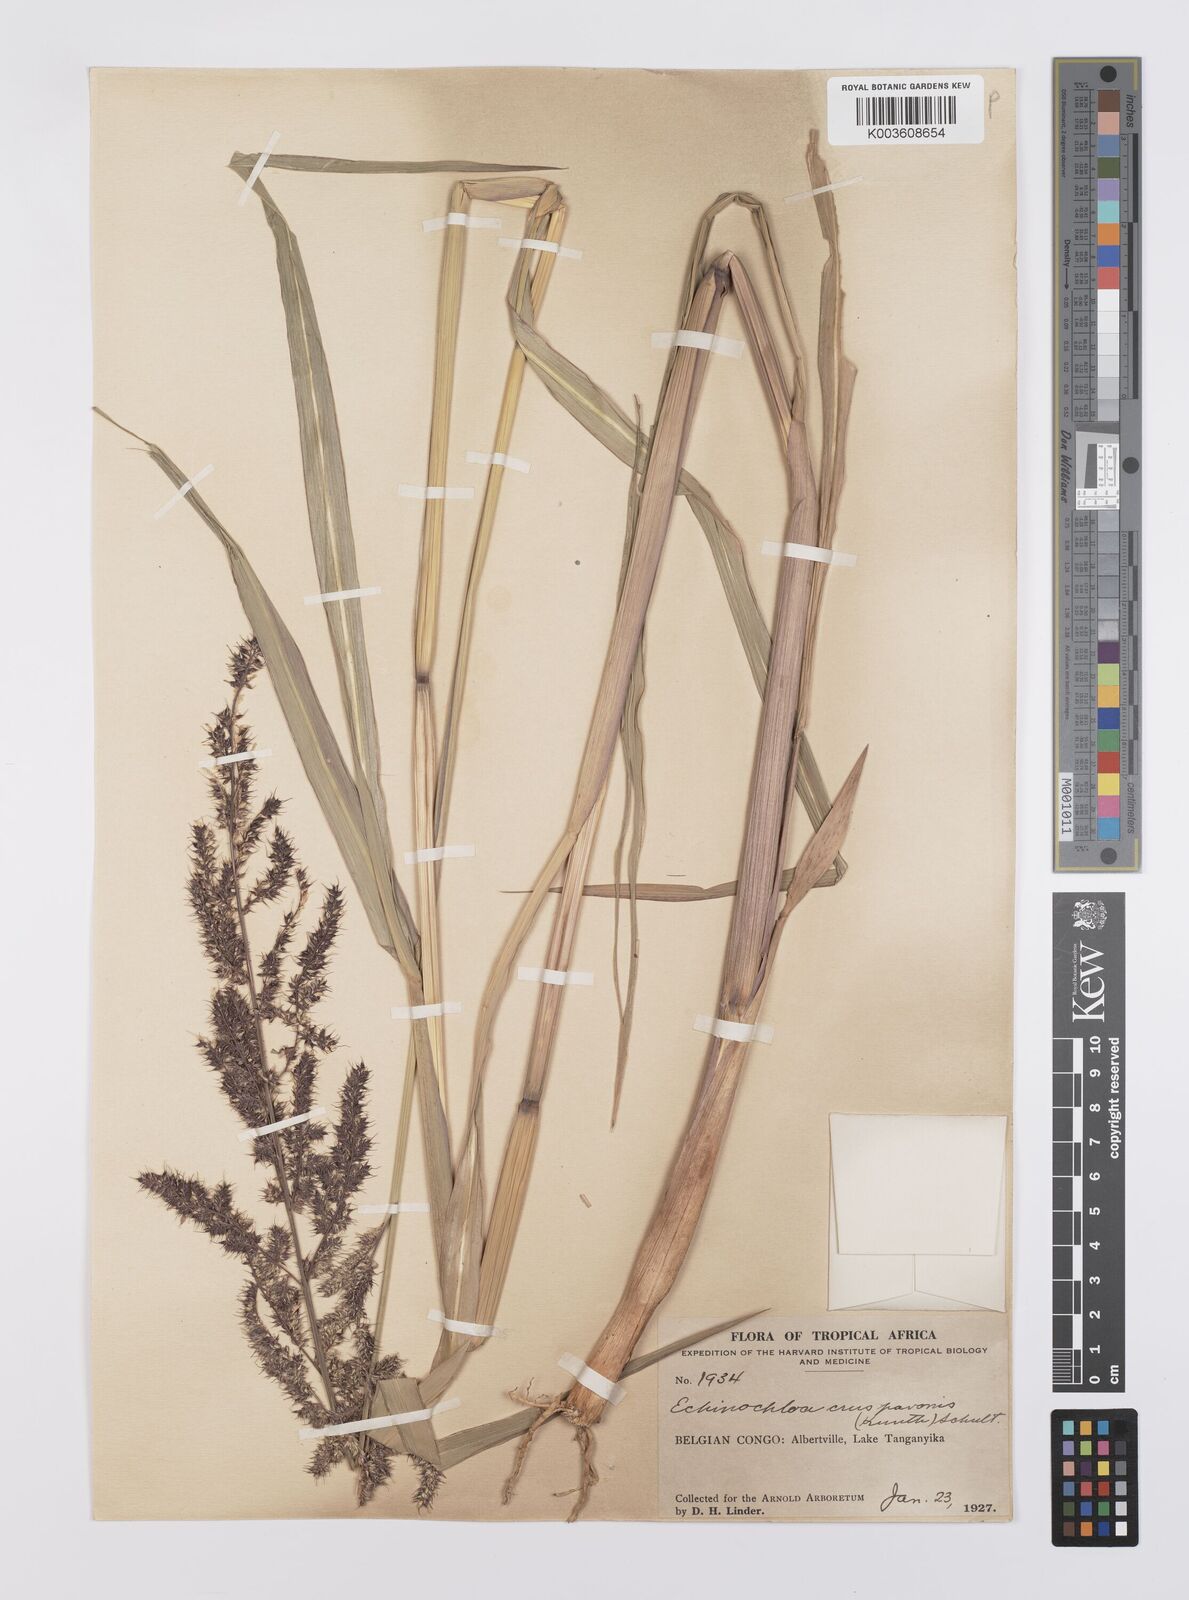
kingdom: Plantae
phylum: Tracheophyta
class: Liliopsida
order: Poales
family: Poaceae
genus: Echinochloa
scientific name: Echinochloa crus-pavonis
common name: Gulf cockspur grass
